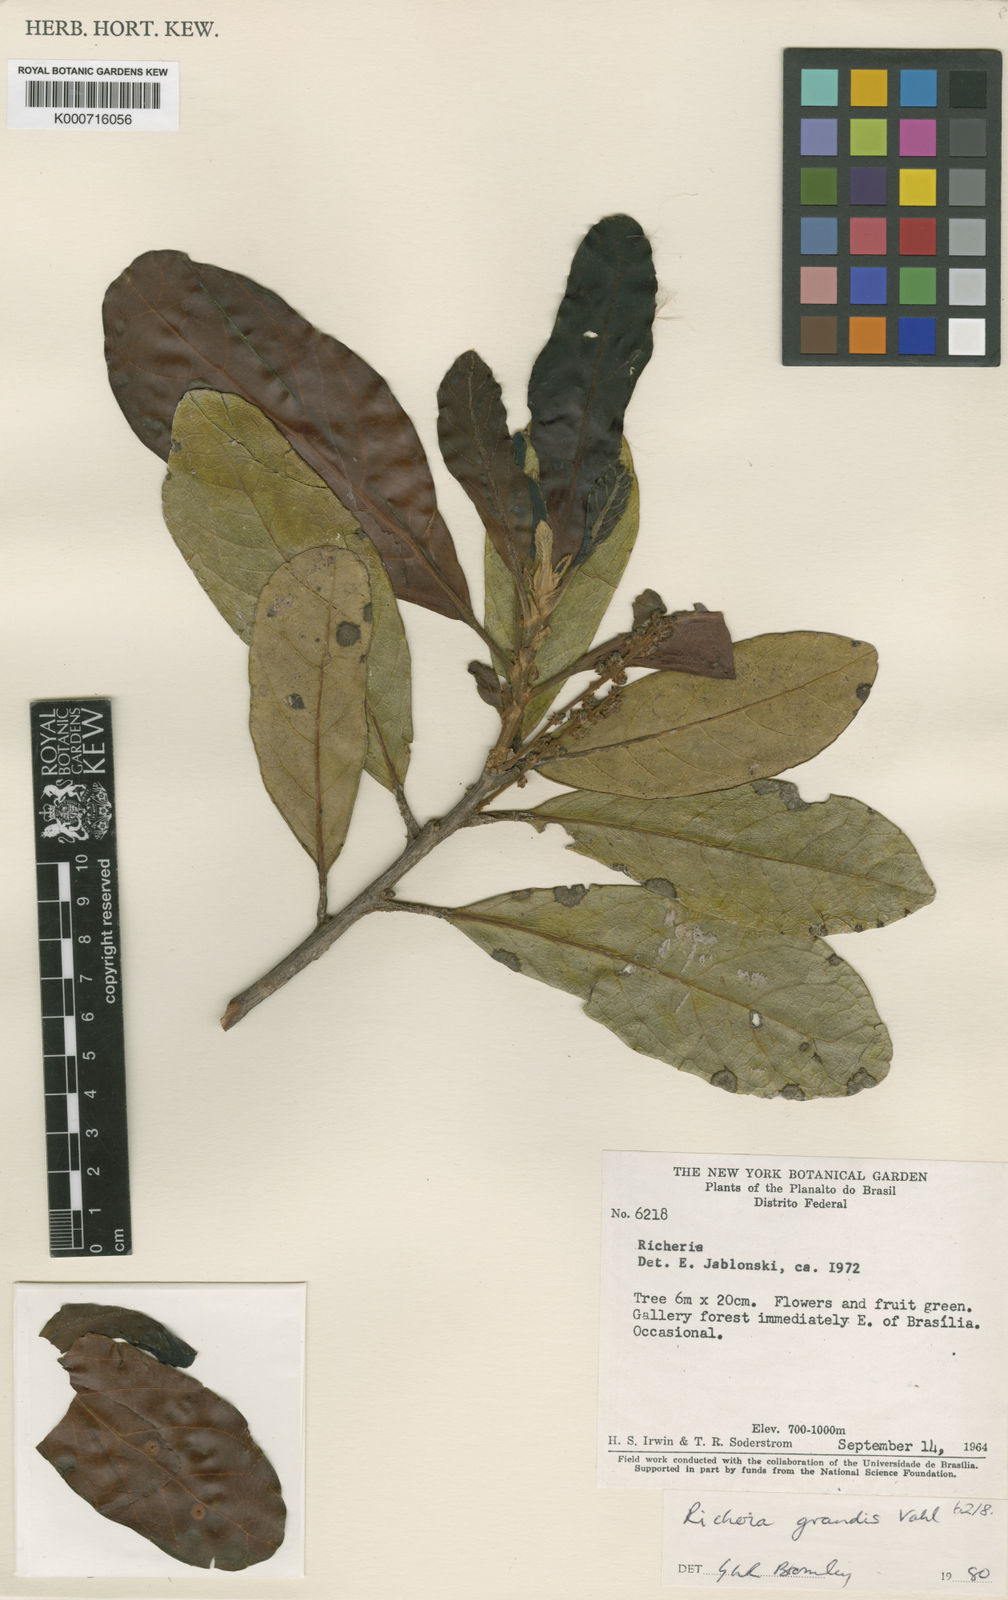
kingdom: Plantae
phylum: Tracheophyta
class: Magnoliopsida
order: Malpighiales
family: Phyllanthaceae
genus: Richeria
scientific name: Richeria grandis
